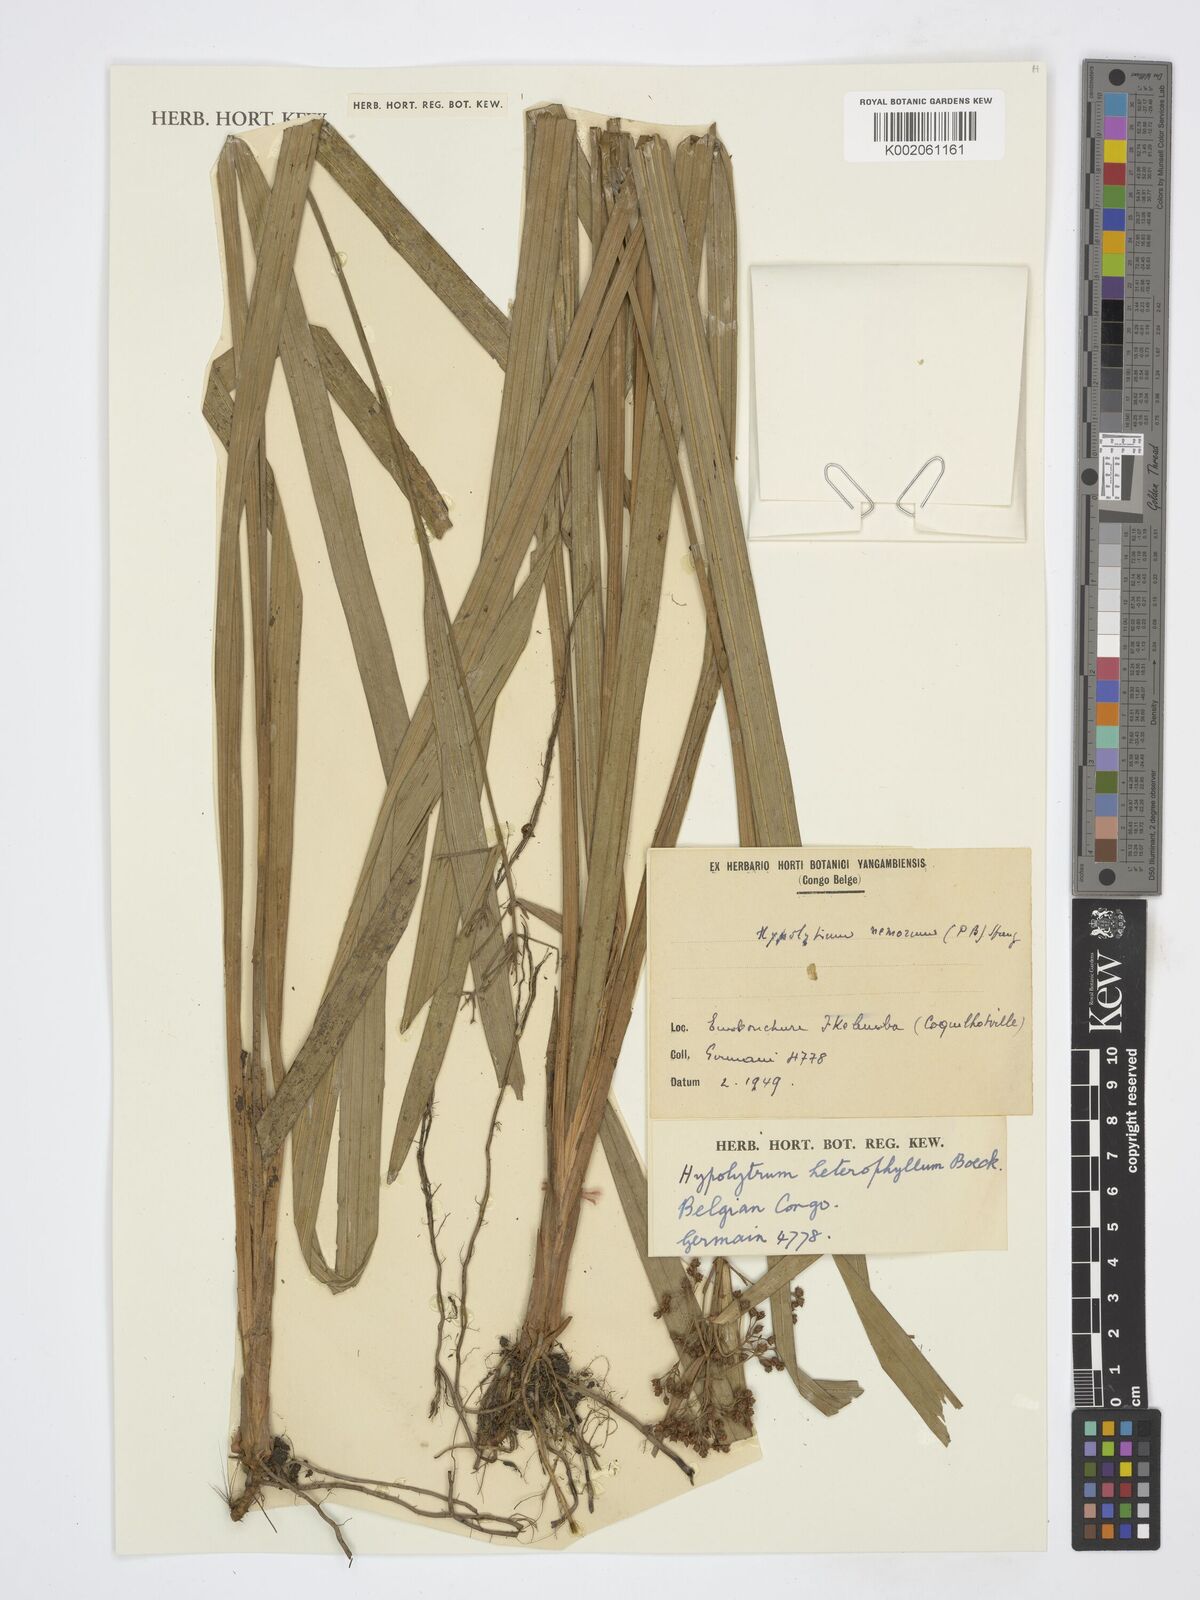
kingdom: Plantae
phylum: Tracheophyta
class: Liliopsida
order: Poales
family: Cyperaceae
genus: Hypolytrum
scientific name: Hypolytrum heterophyllum
